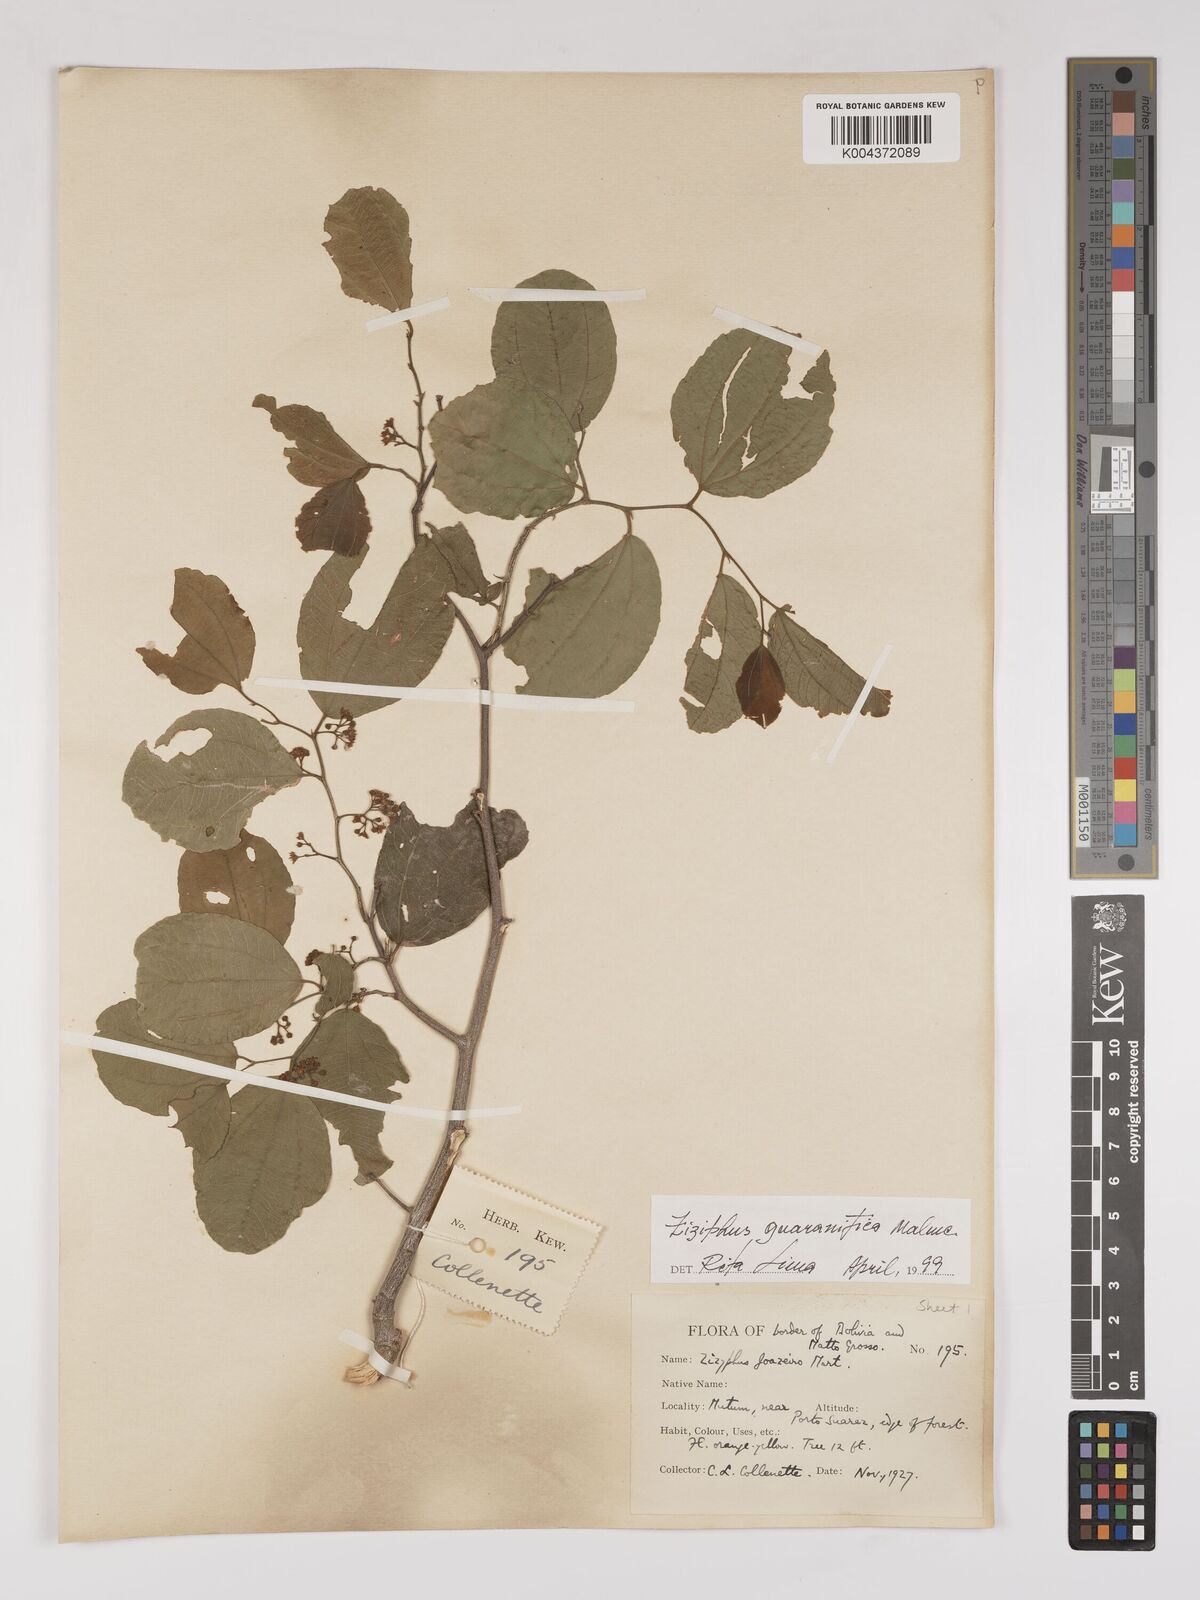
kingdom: Plantae
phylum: Tracheophyta
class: Magnoliopsida
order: Rosales
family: Rhamnaceae
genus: Ziziphus
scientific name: Ziziphus guaranitica
